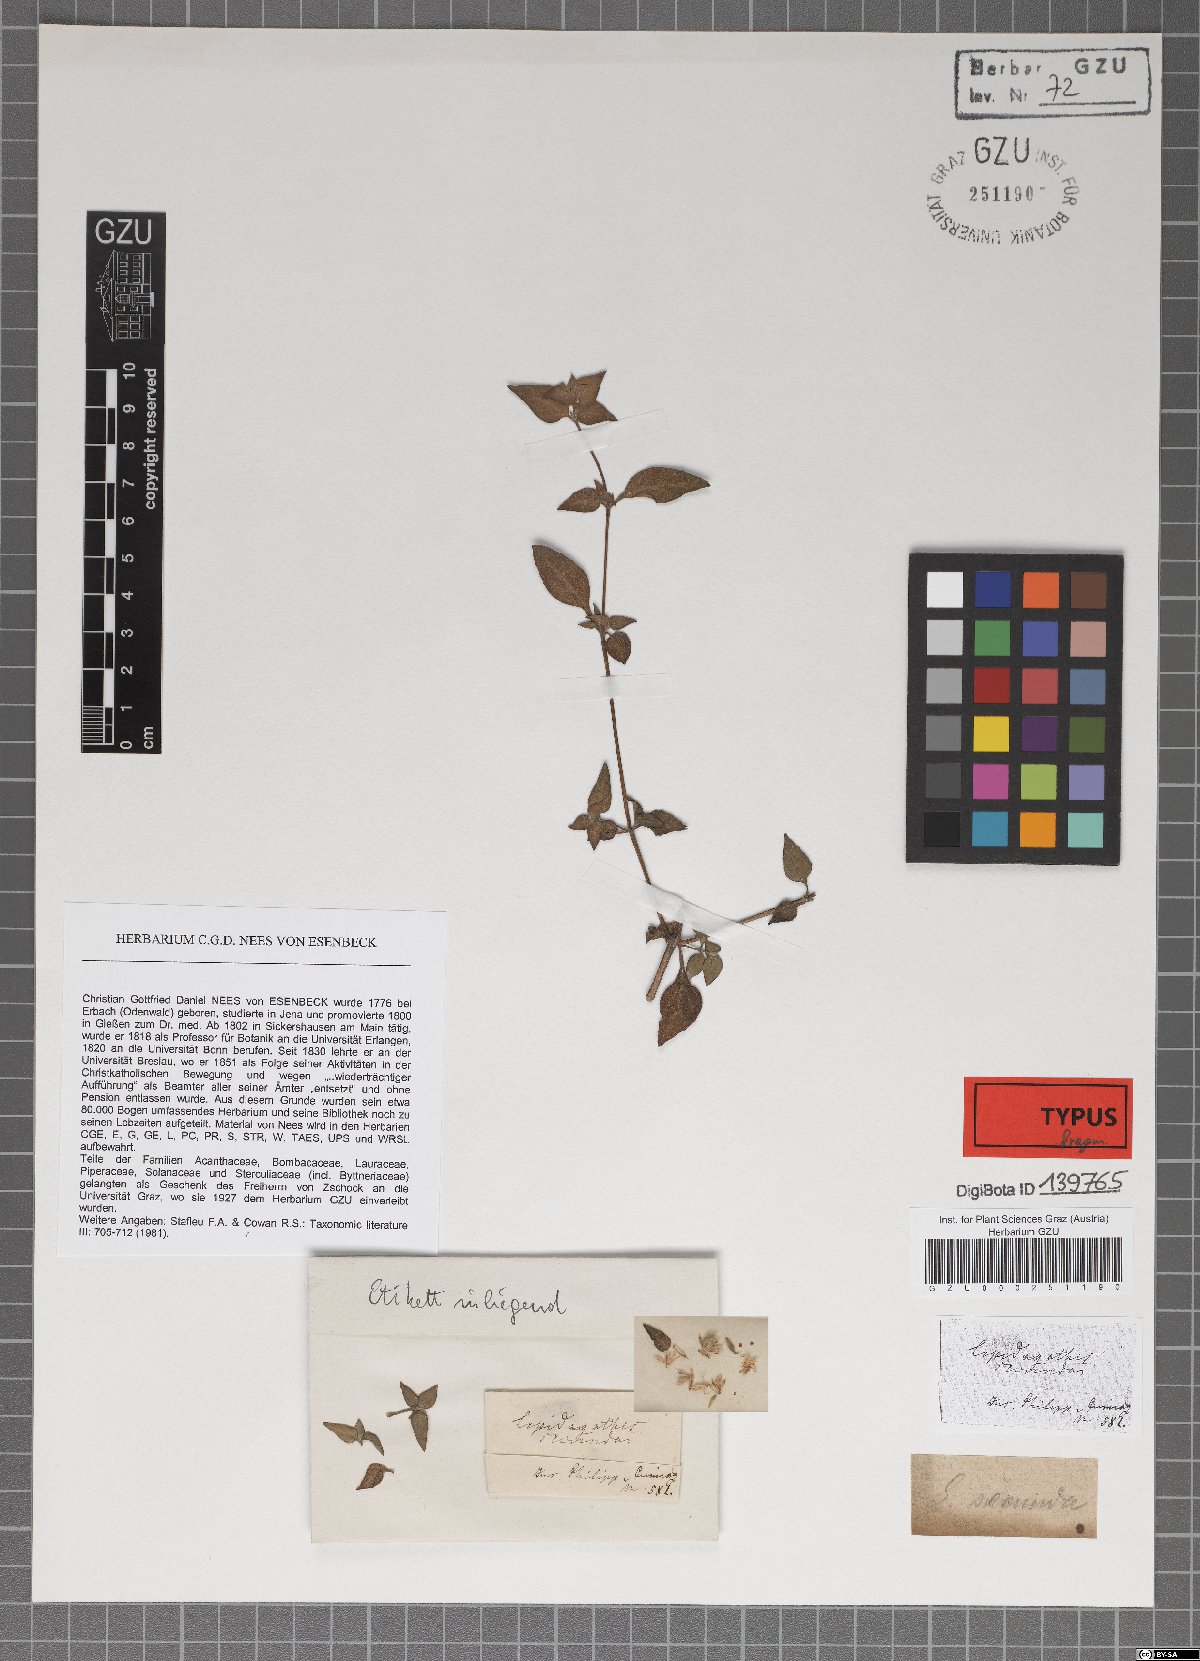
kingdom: Plantae
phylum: Tracheophyta
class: Magnoliopsida
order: Lamiales
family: Acanthaceae
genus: Lepidagathis
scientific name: Lepidagathis secunda
